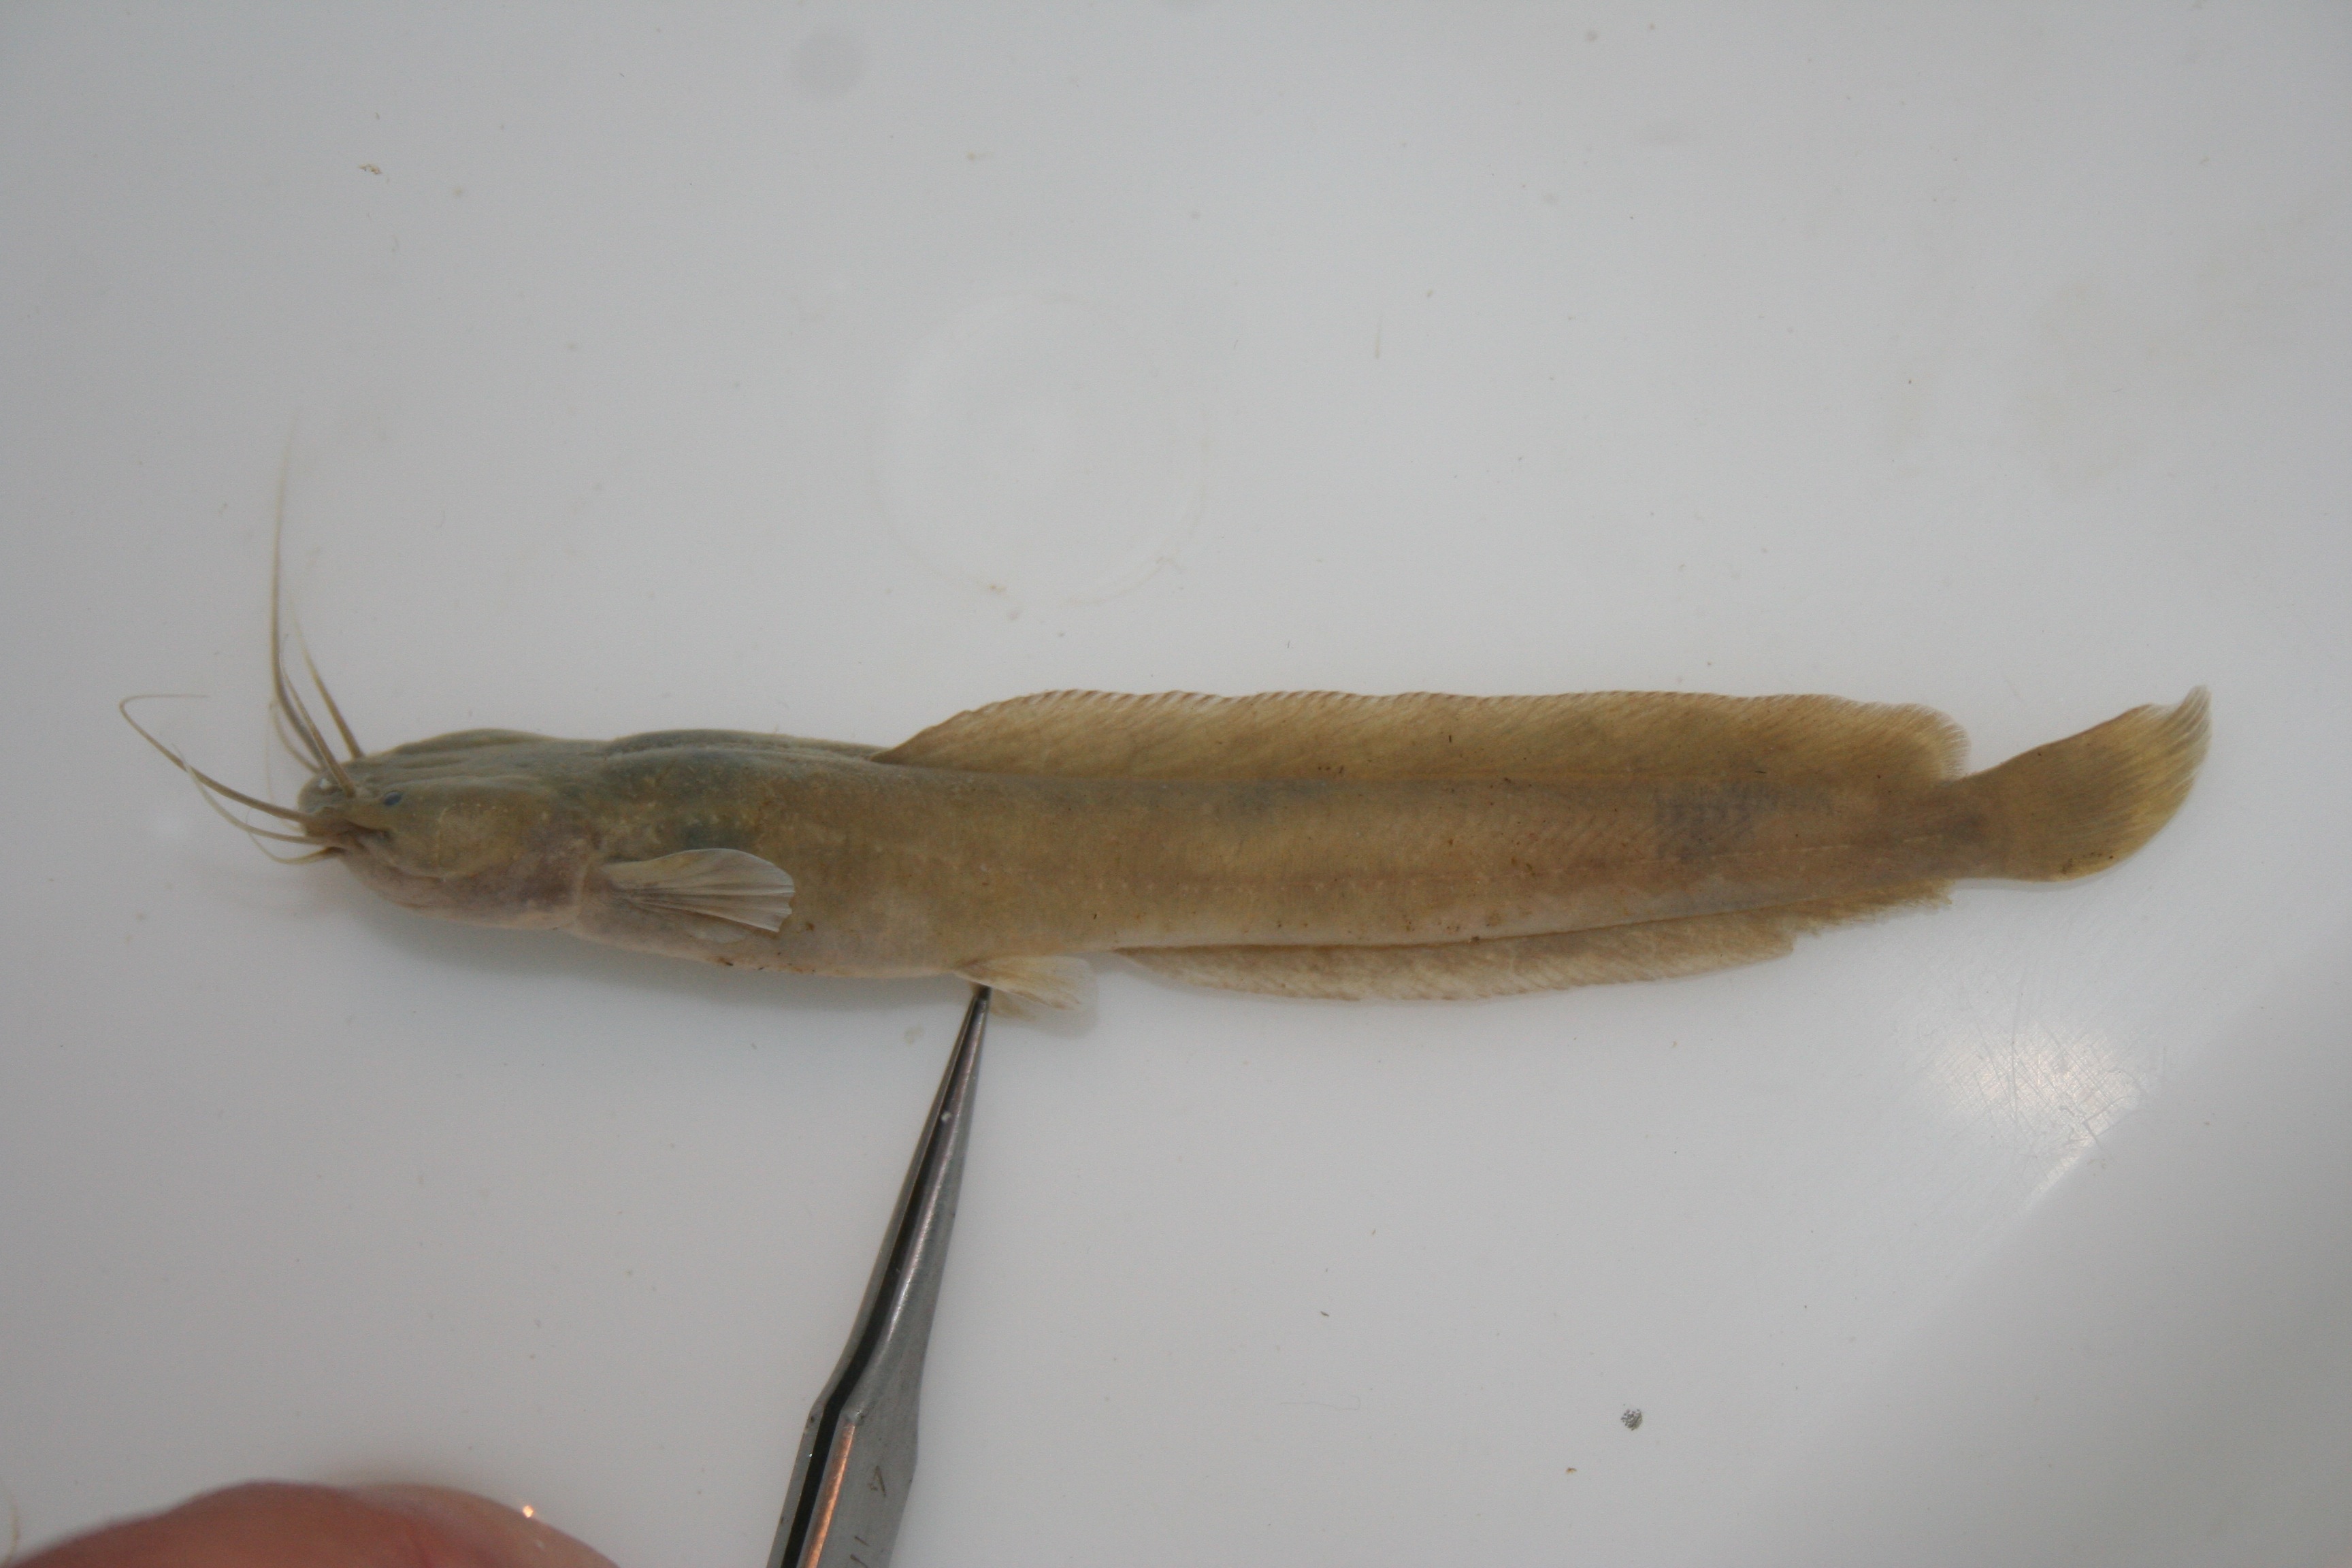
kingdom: Animalia
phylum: Chordata
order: Siluriformes
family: Clariidae
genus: Clarias
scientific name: Clarias
